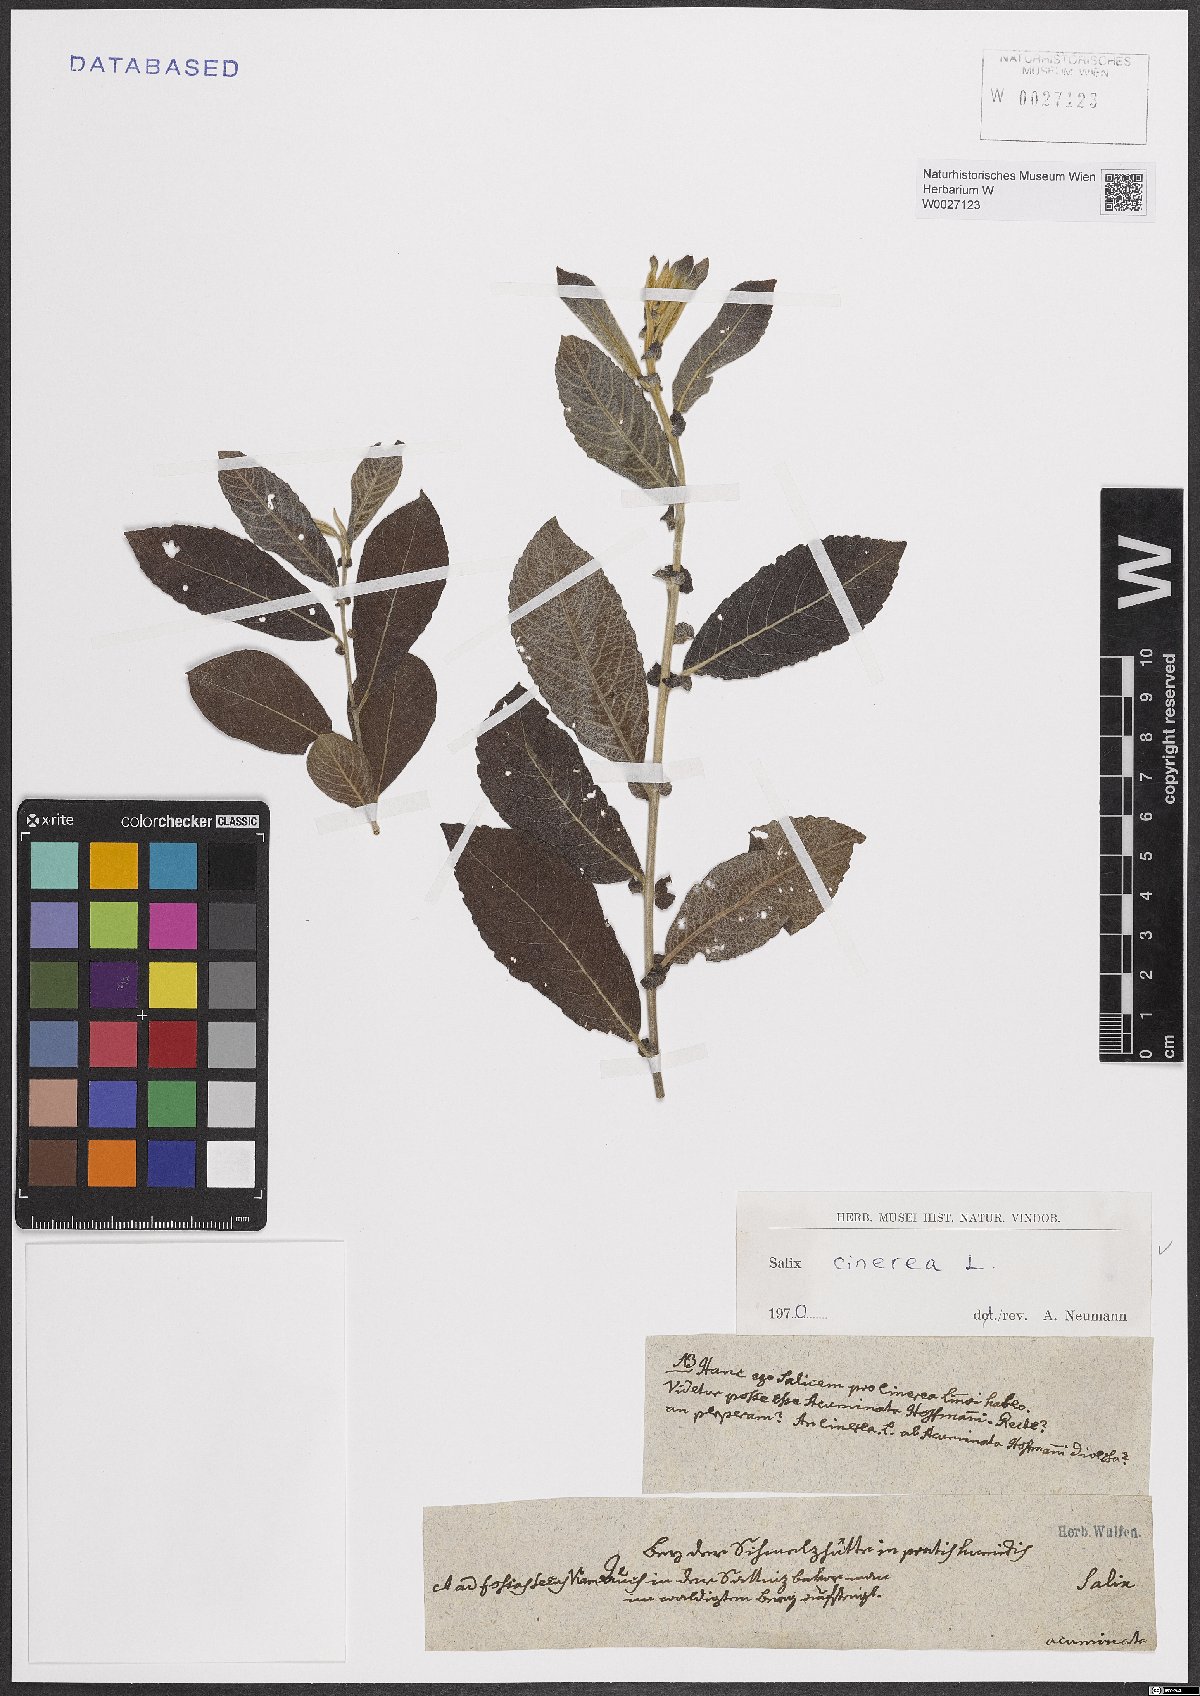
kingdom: Plantae
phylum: Tracheophyta
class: Magnoliopsida
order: Malpighiales
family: Salicaceae
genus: Salix
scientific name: Salix cinerea
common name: Common sallow
